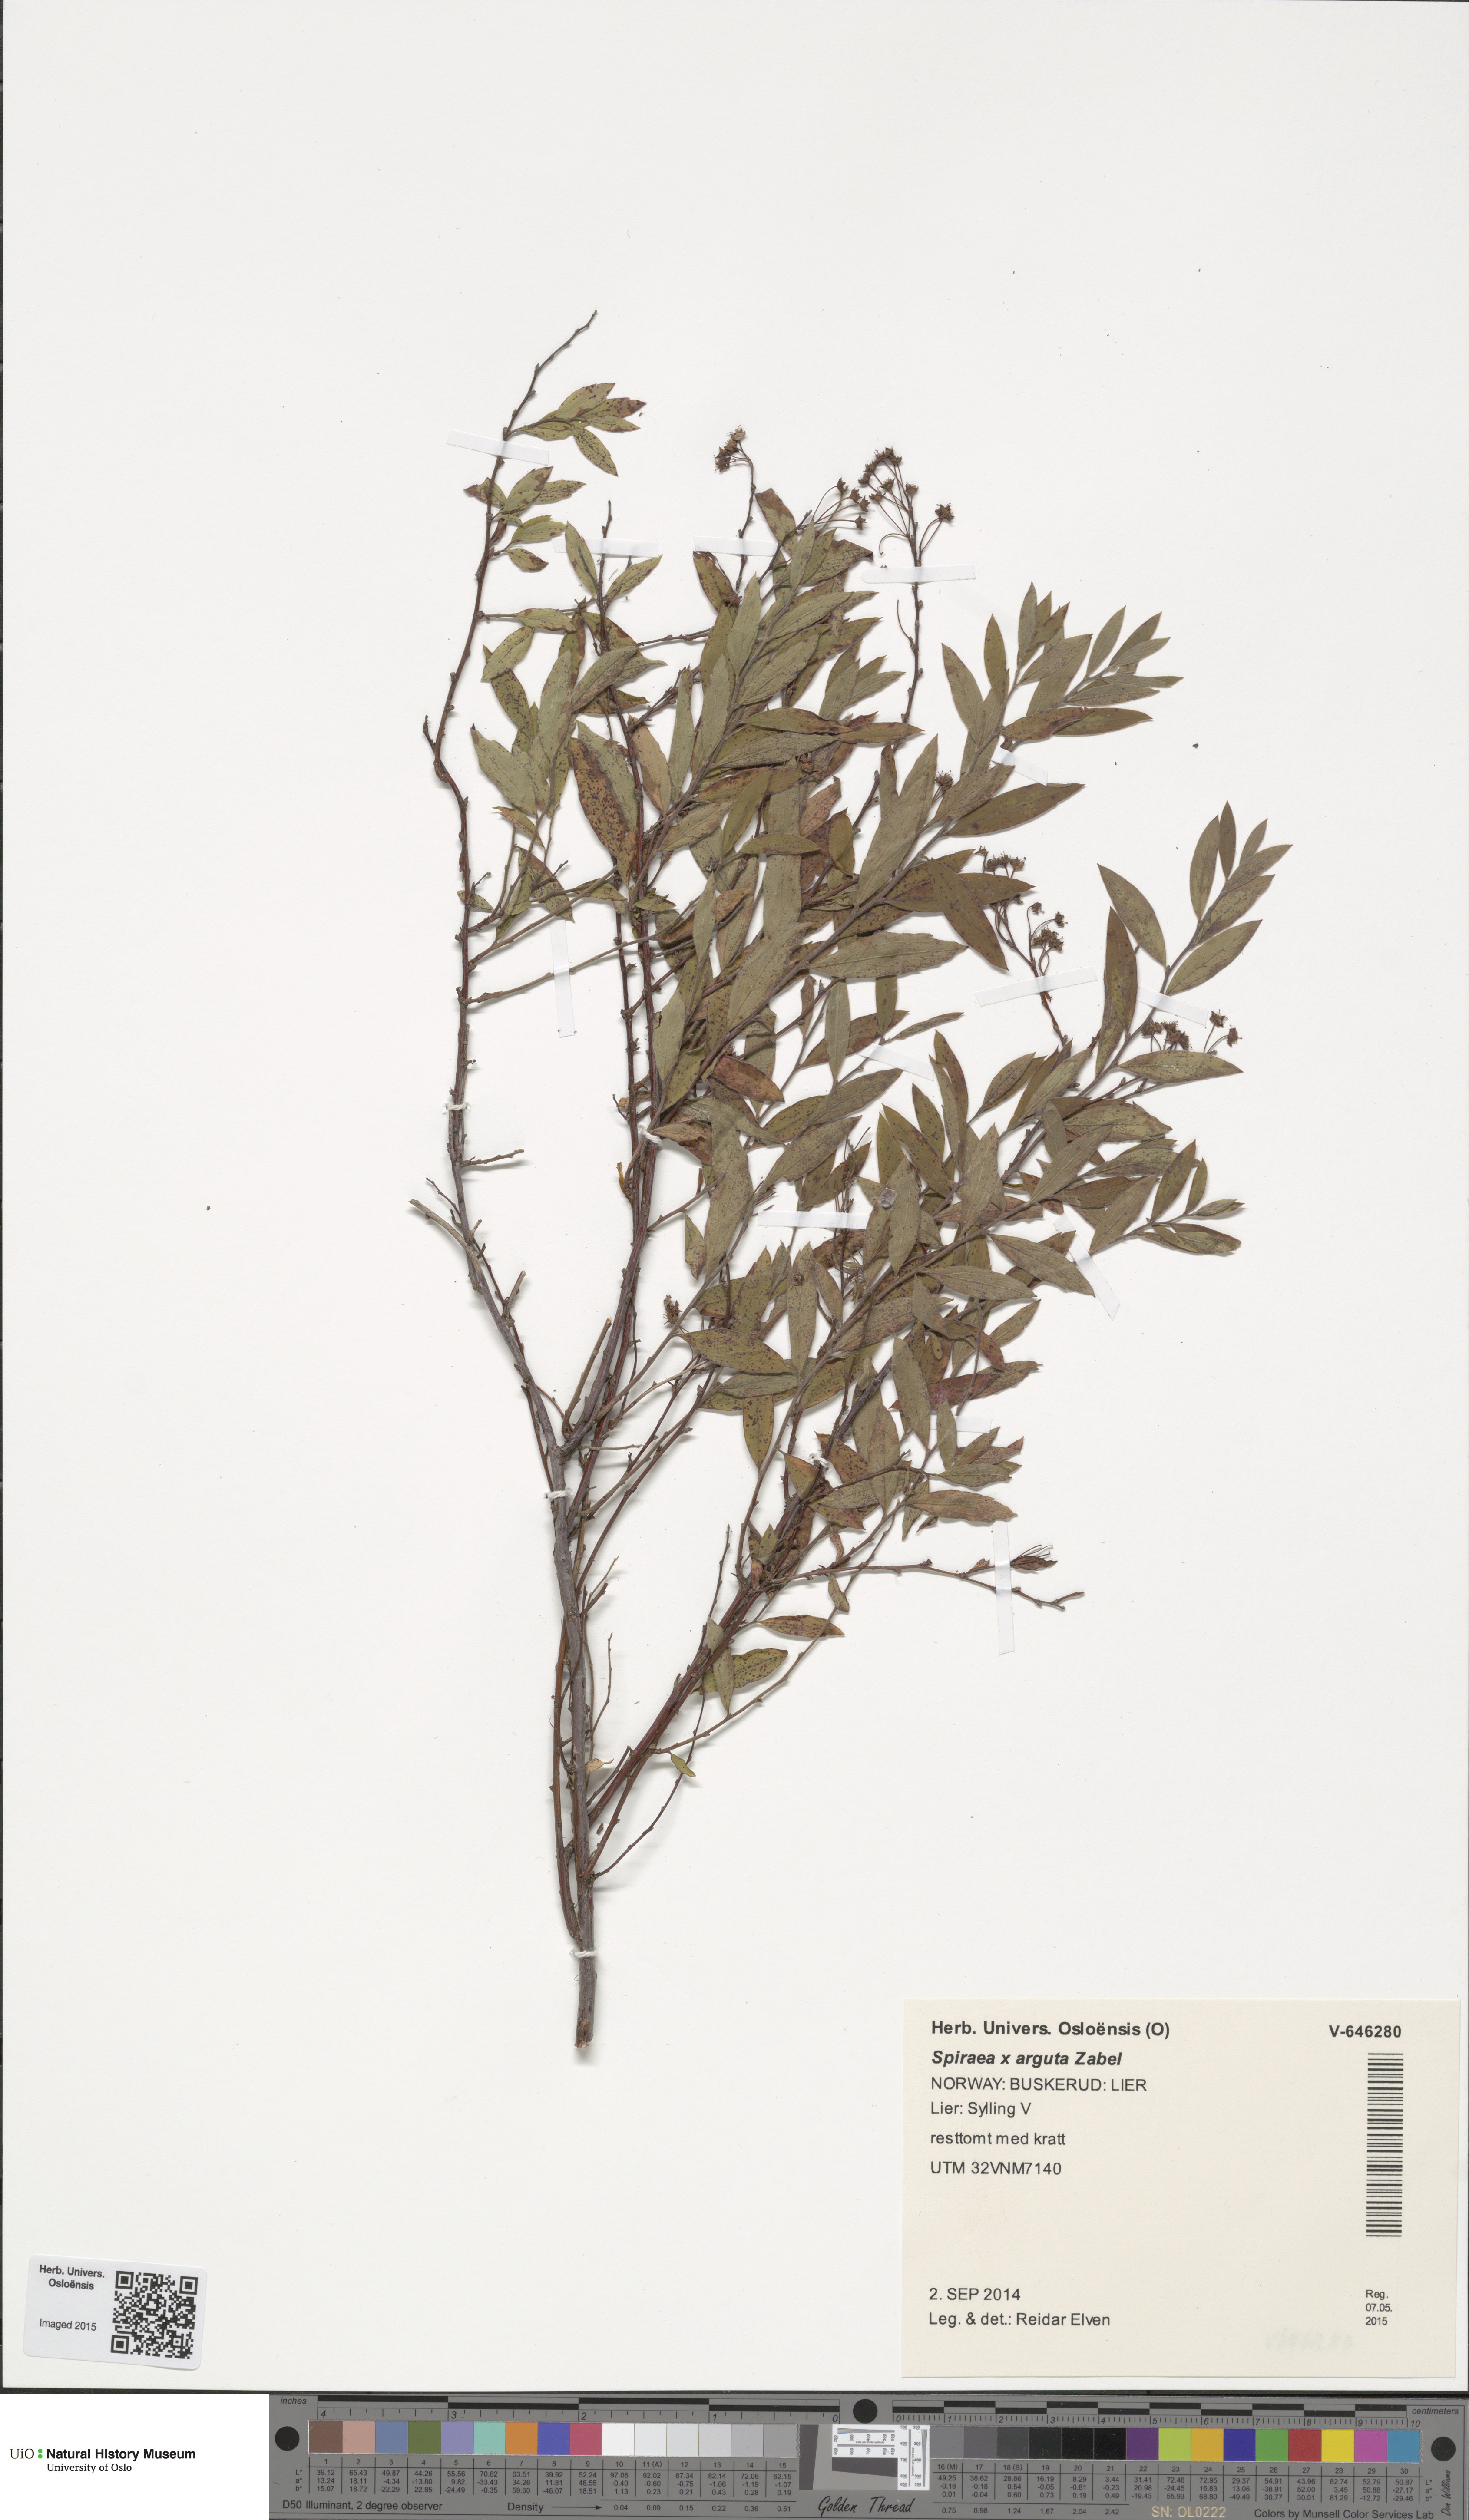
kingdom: Plantae
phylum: Tracheophyta
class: Magnoliopsida
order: Rosales
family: Rosaceae
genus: Spiraea
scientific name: Spiraea arguta
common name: Garland spiraea
